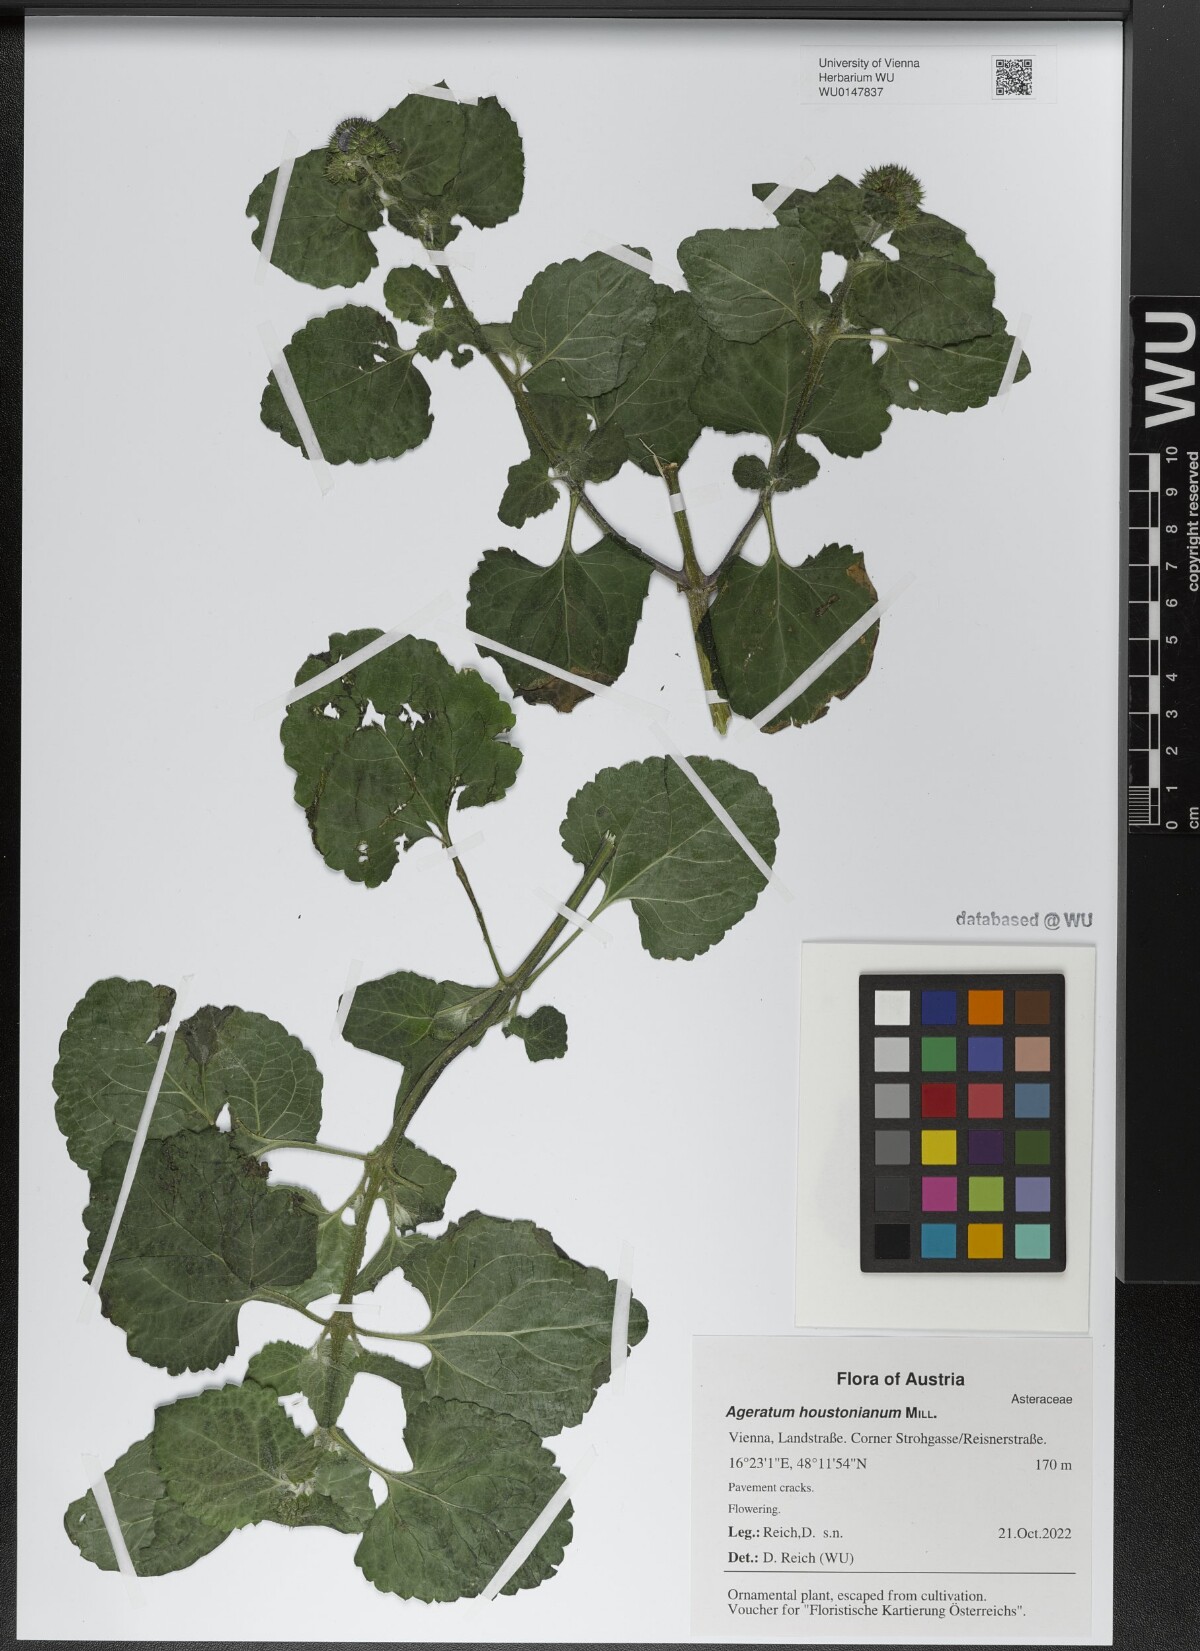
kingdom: Plantae
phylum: Tracheophyta
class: Magnoliopsida
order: Asterales
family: Asteraceae
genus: Ageratum
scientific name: Ageratum houstonianum
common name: Bluemink
